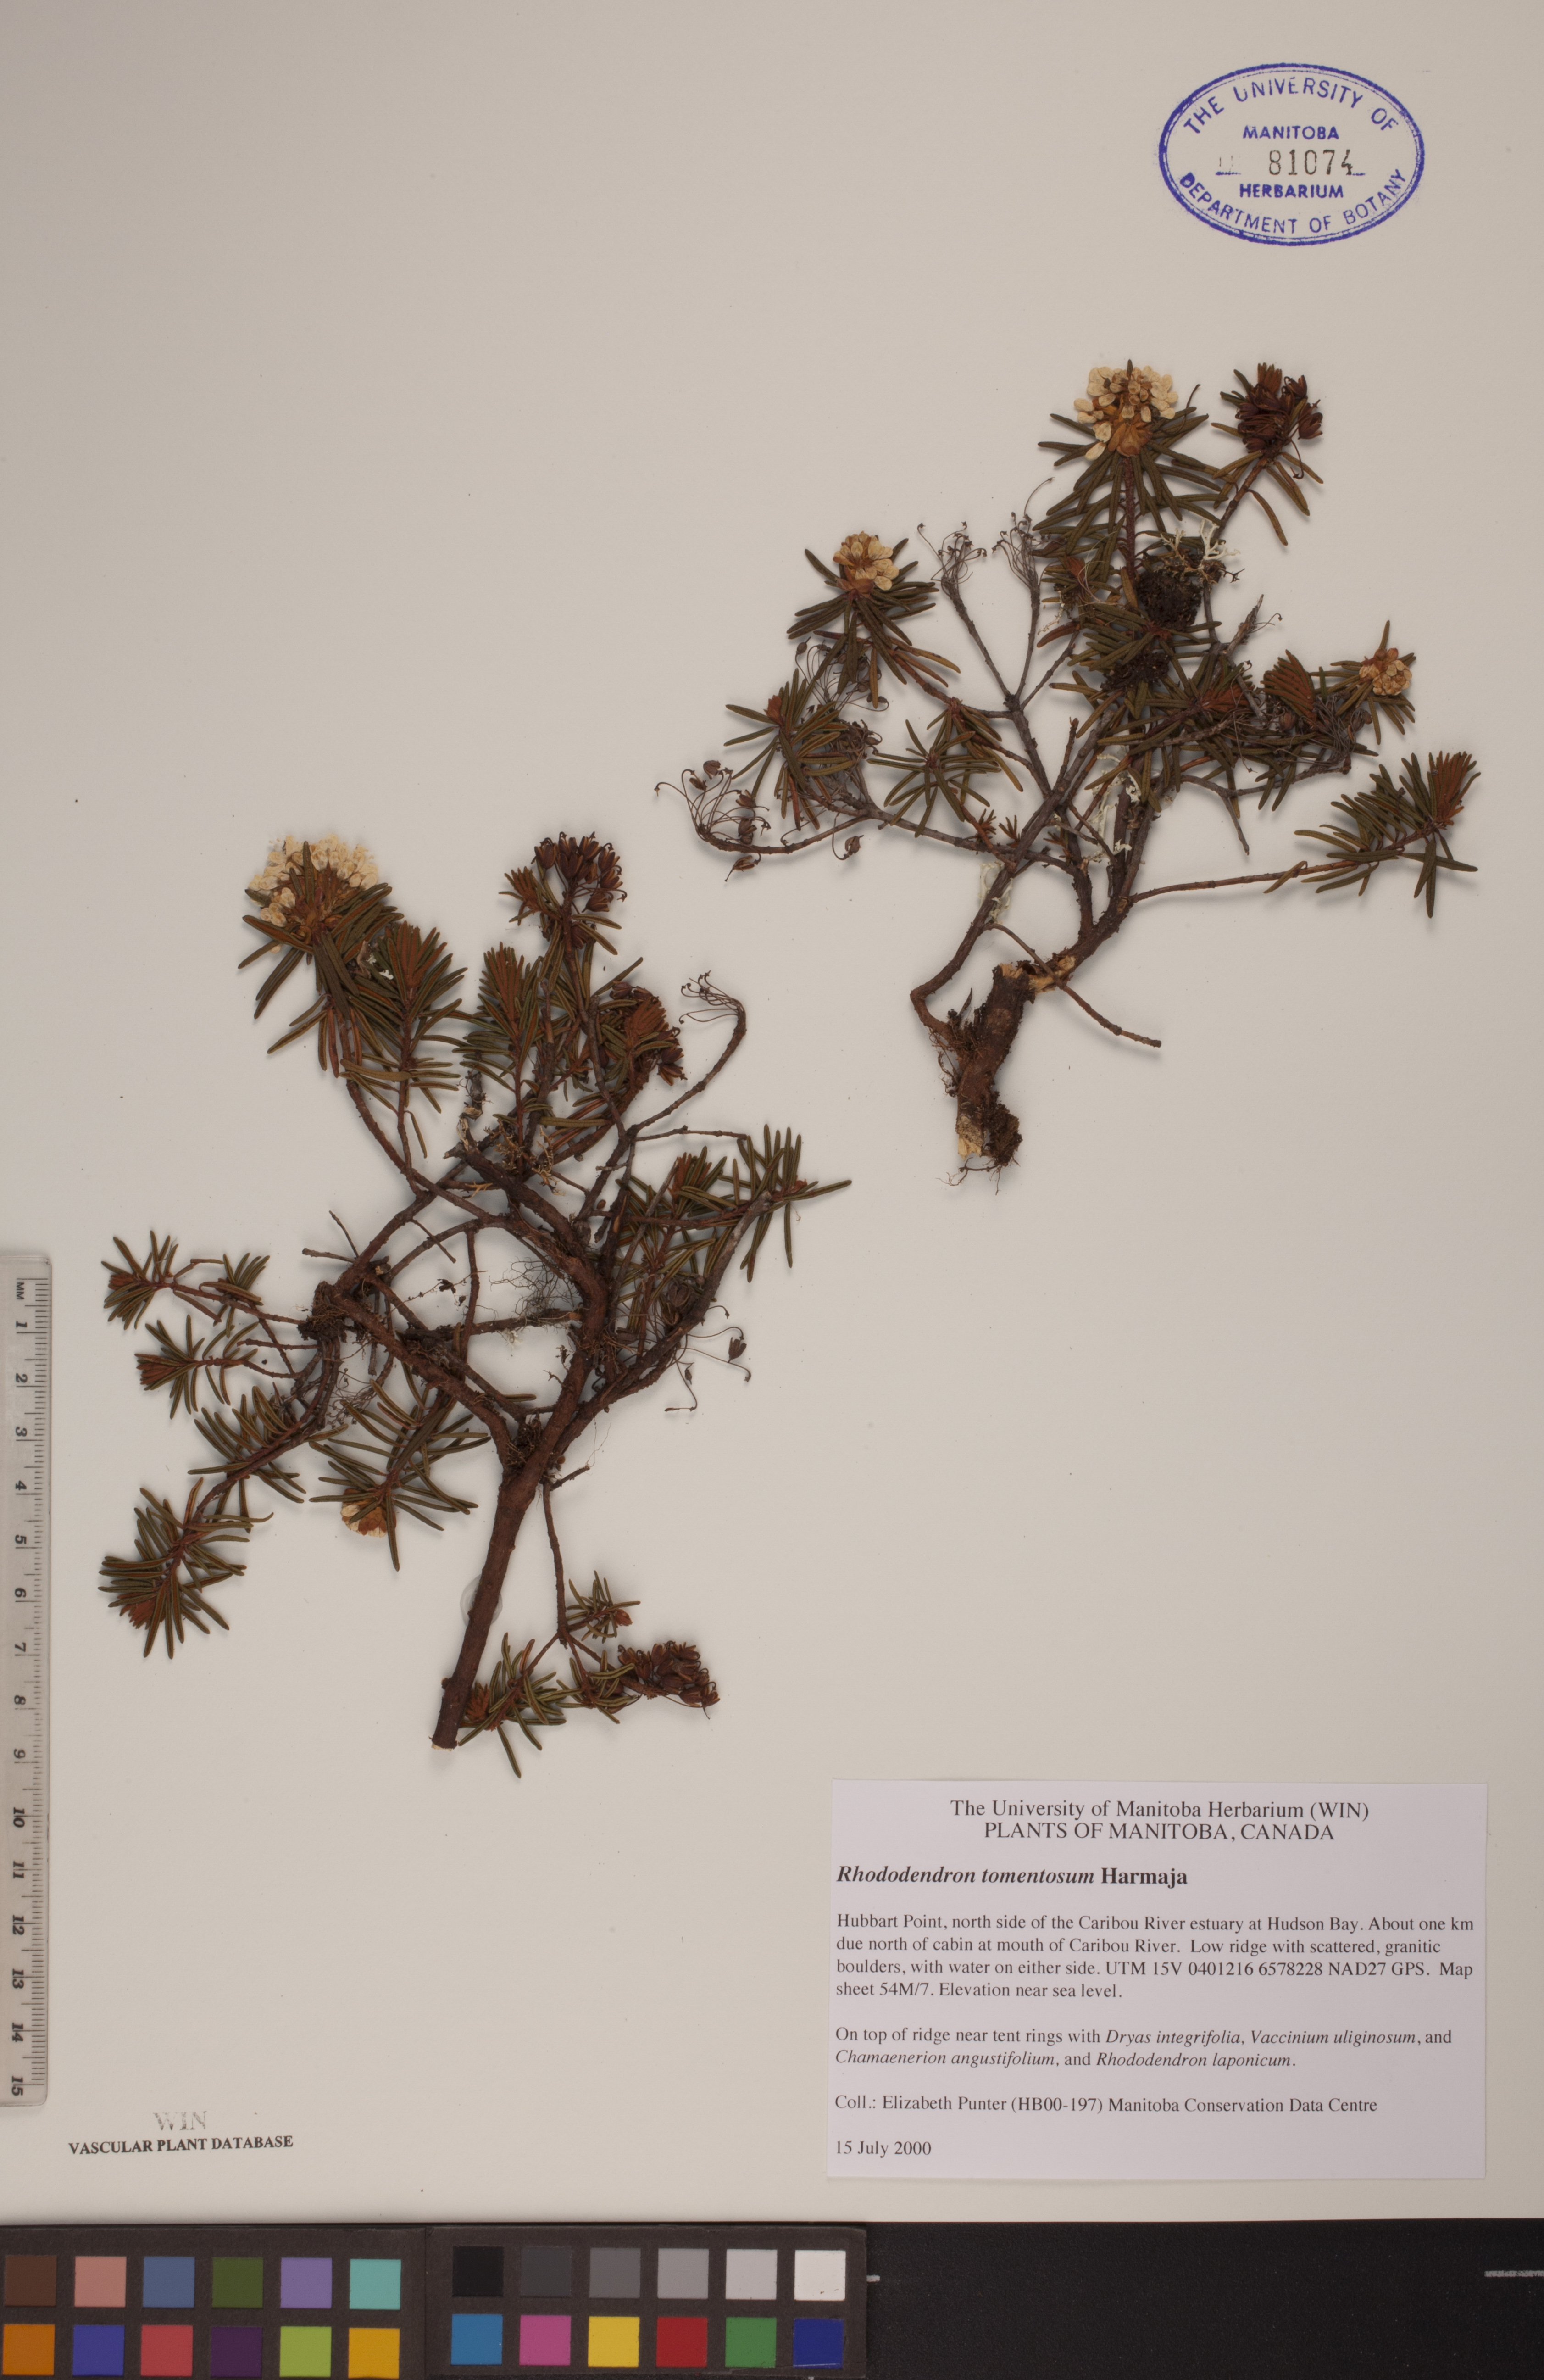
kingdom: Plantae
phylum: Tracheophyta
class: Magnoliopsida
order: Ericales
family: Ericaceae
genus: Rhododendron
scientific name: Rhododendron tomentosum
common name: Marsh labrador tea
